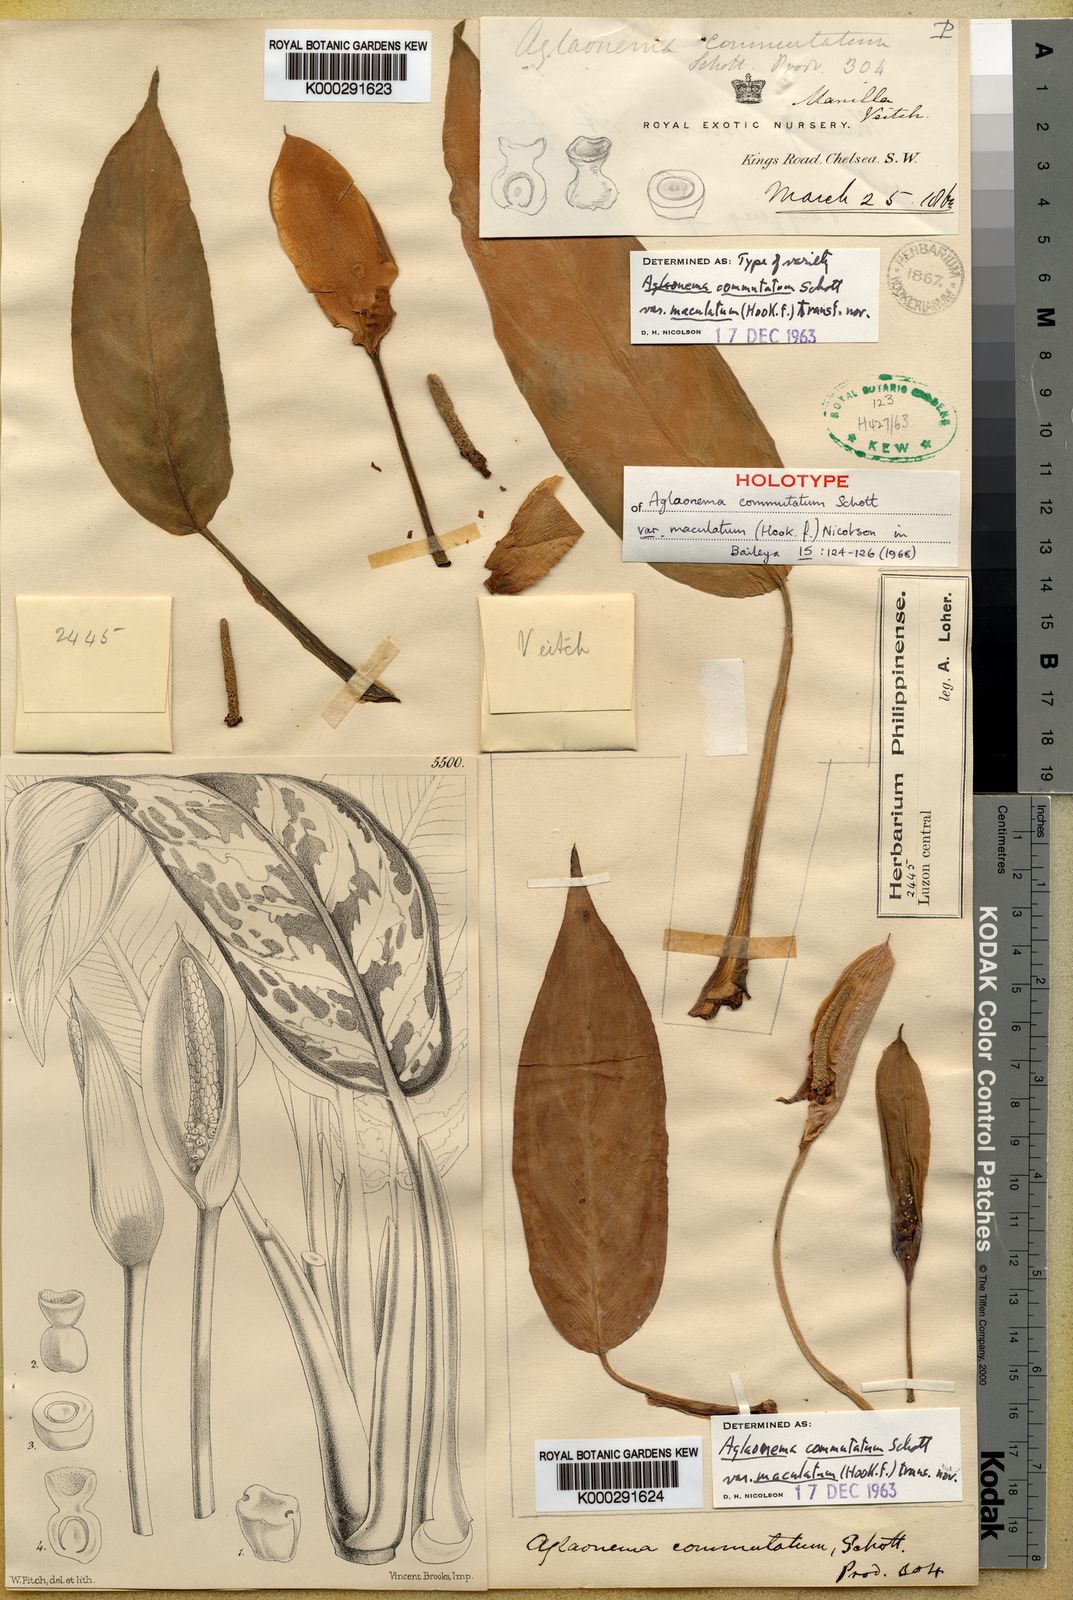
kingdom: Plantae
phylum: Tracheophyta
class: Liliopsida
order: Alismatales
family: Araceae
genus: Aglaonema
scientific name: Aglaonema commutatum
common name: Philippine evergreen
